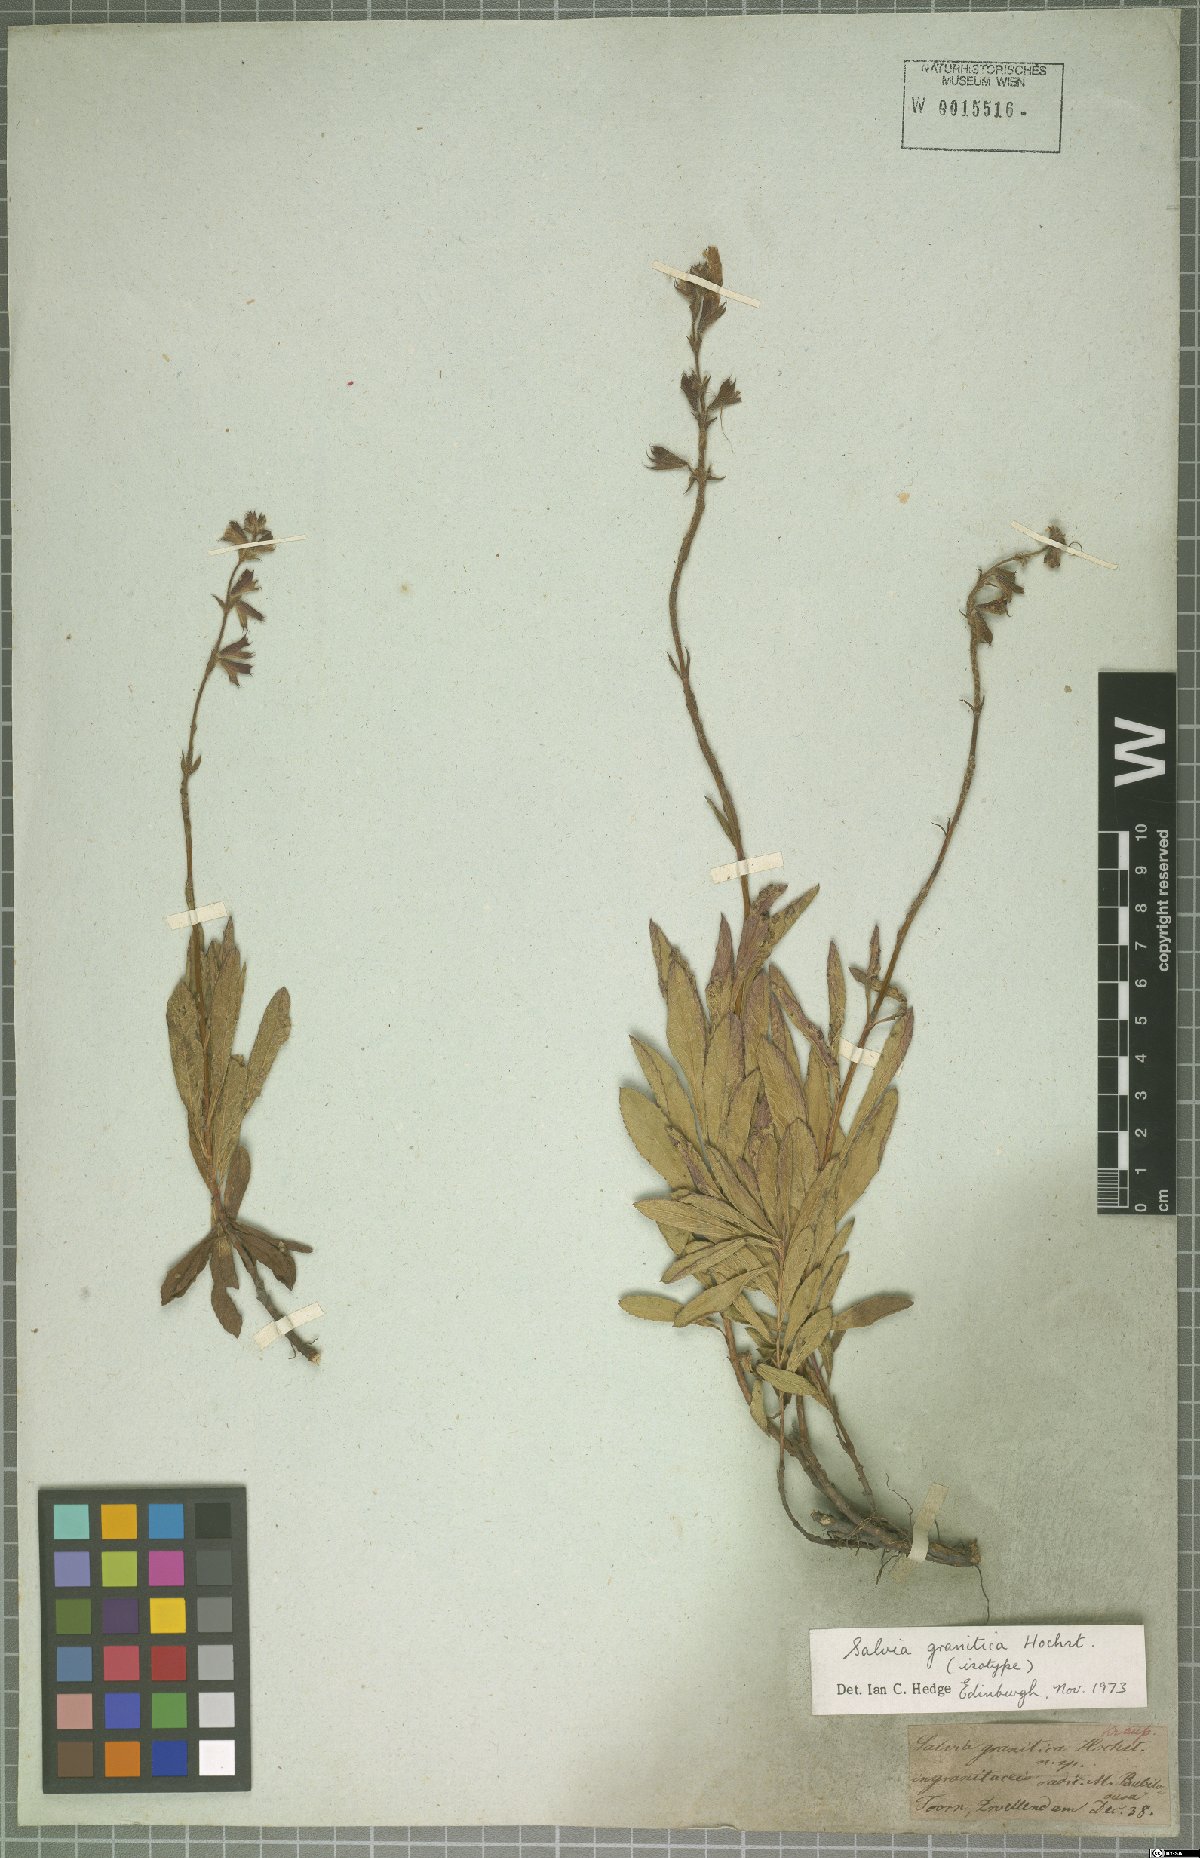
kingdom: Plantae
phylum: Tracheophyta
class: Magnoliopsida
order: Lamiales
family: Lamiaceae
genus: Salvia
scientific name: Salvia granitica
